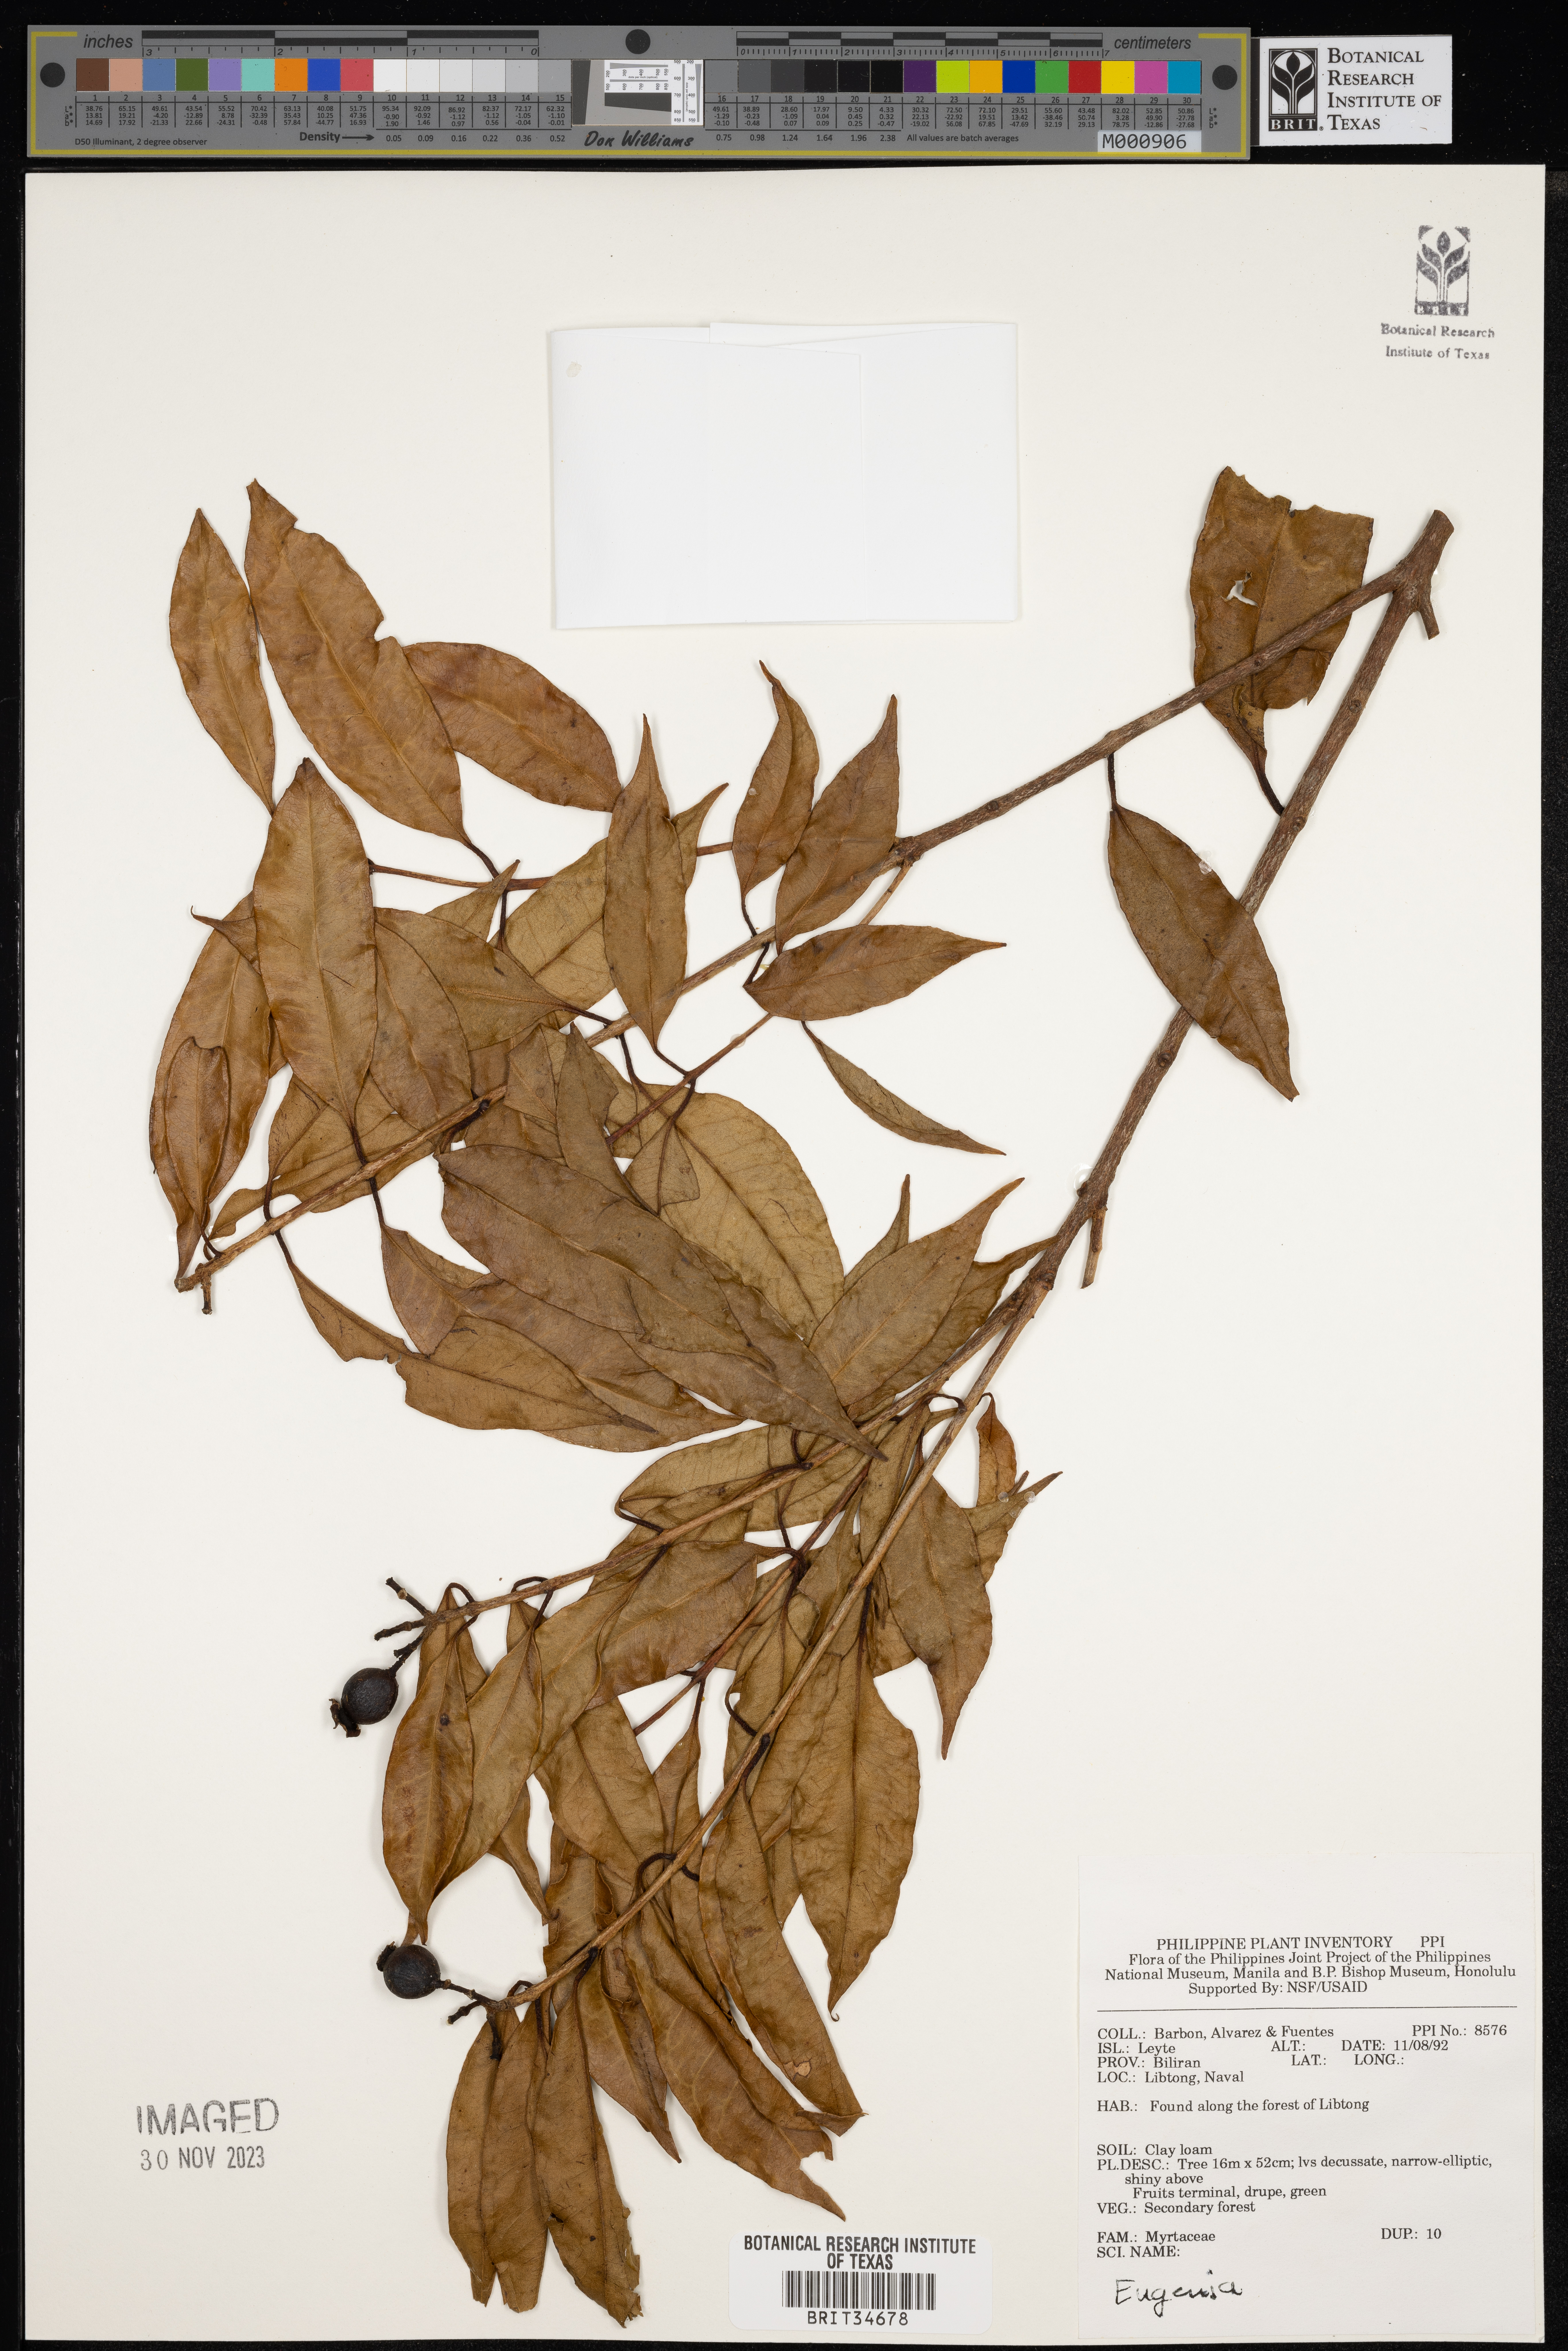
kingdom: Plantae
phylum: Tracheophyta
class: Magnoliopsida
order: Myrtales
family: Myrtaceae
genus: Eugenia
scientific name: Eugenia
